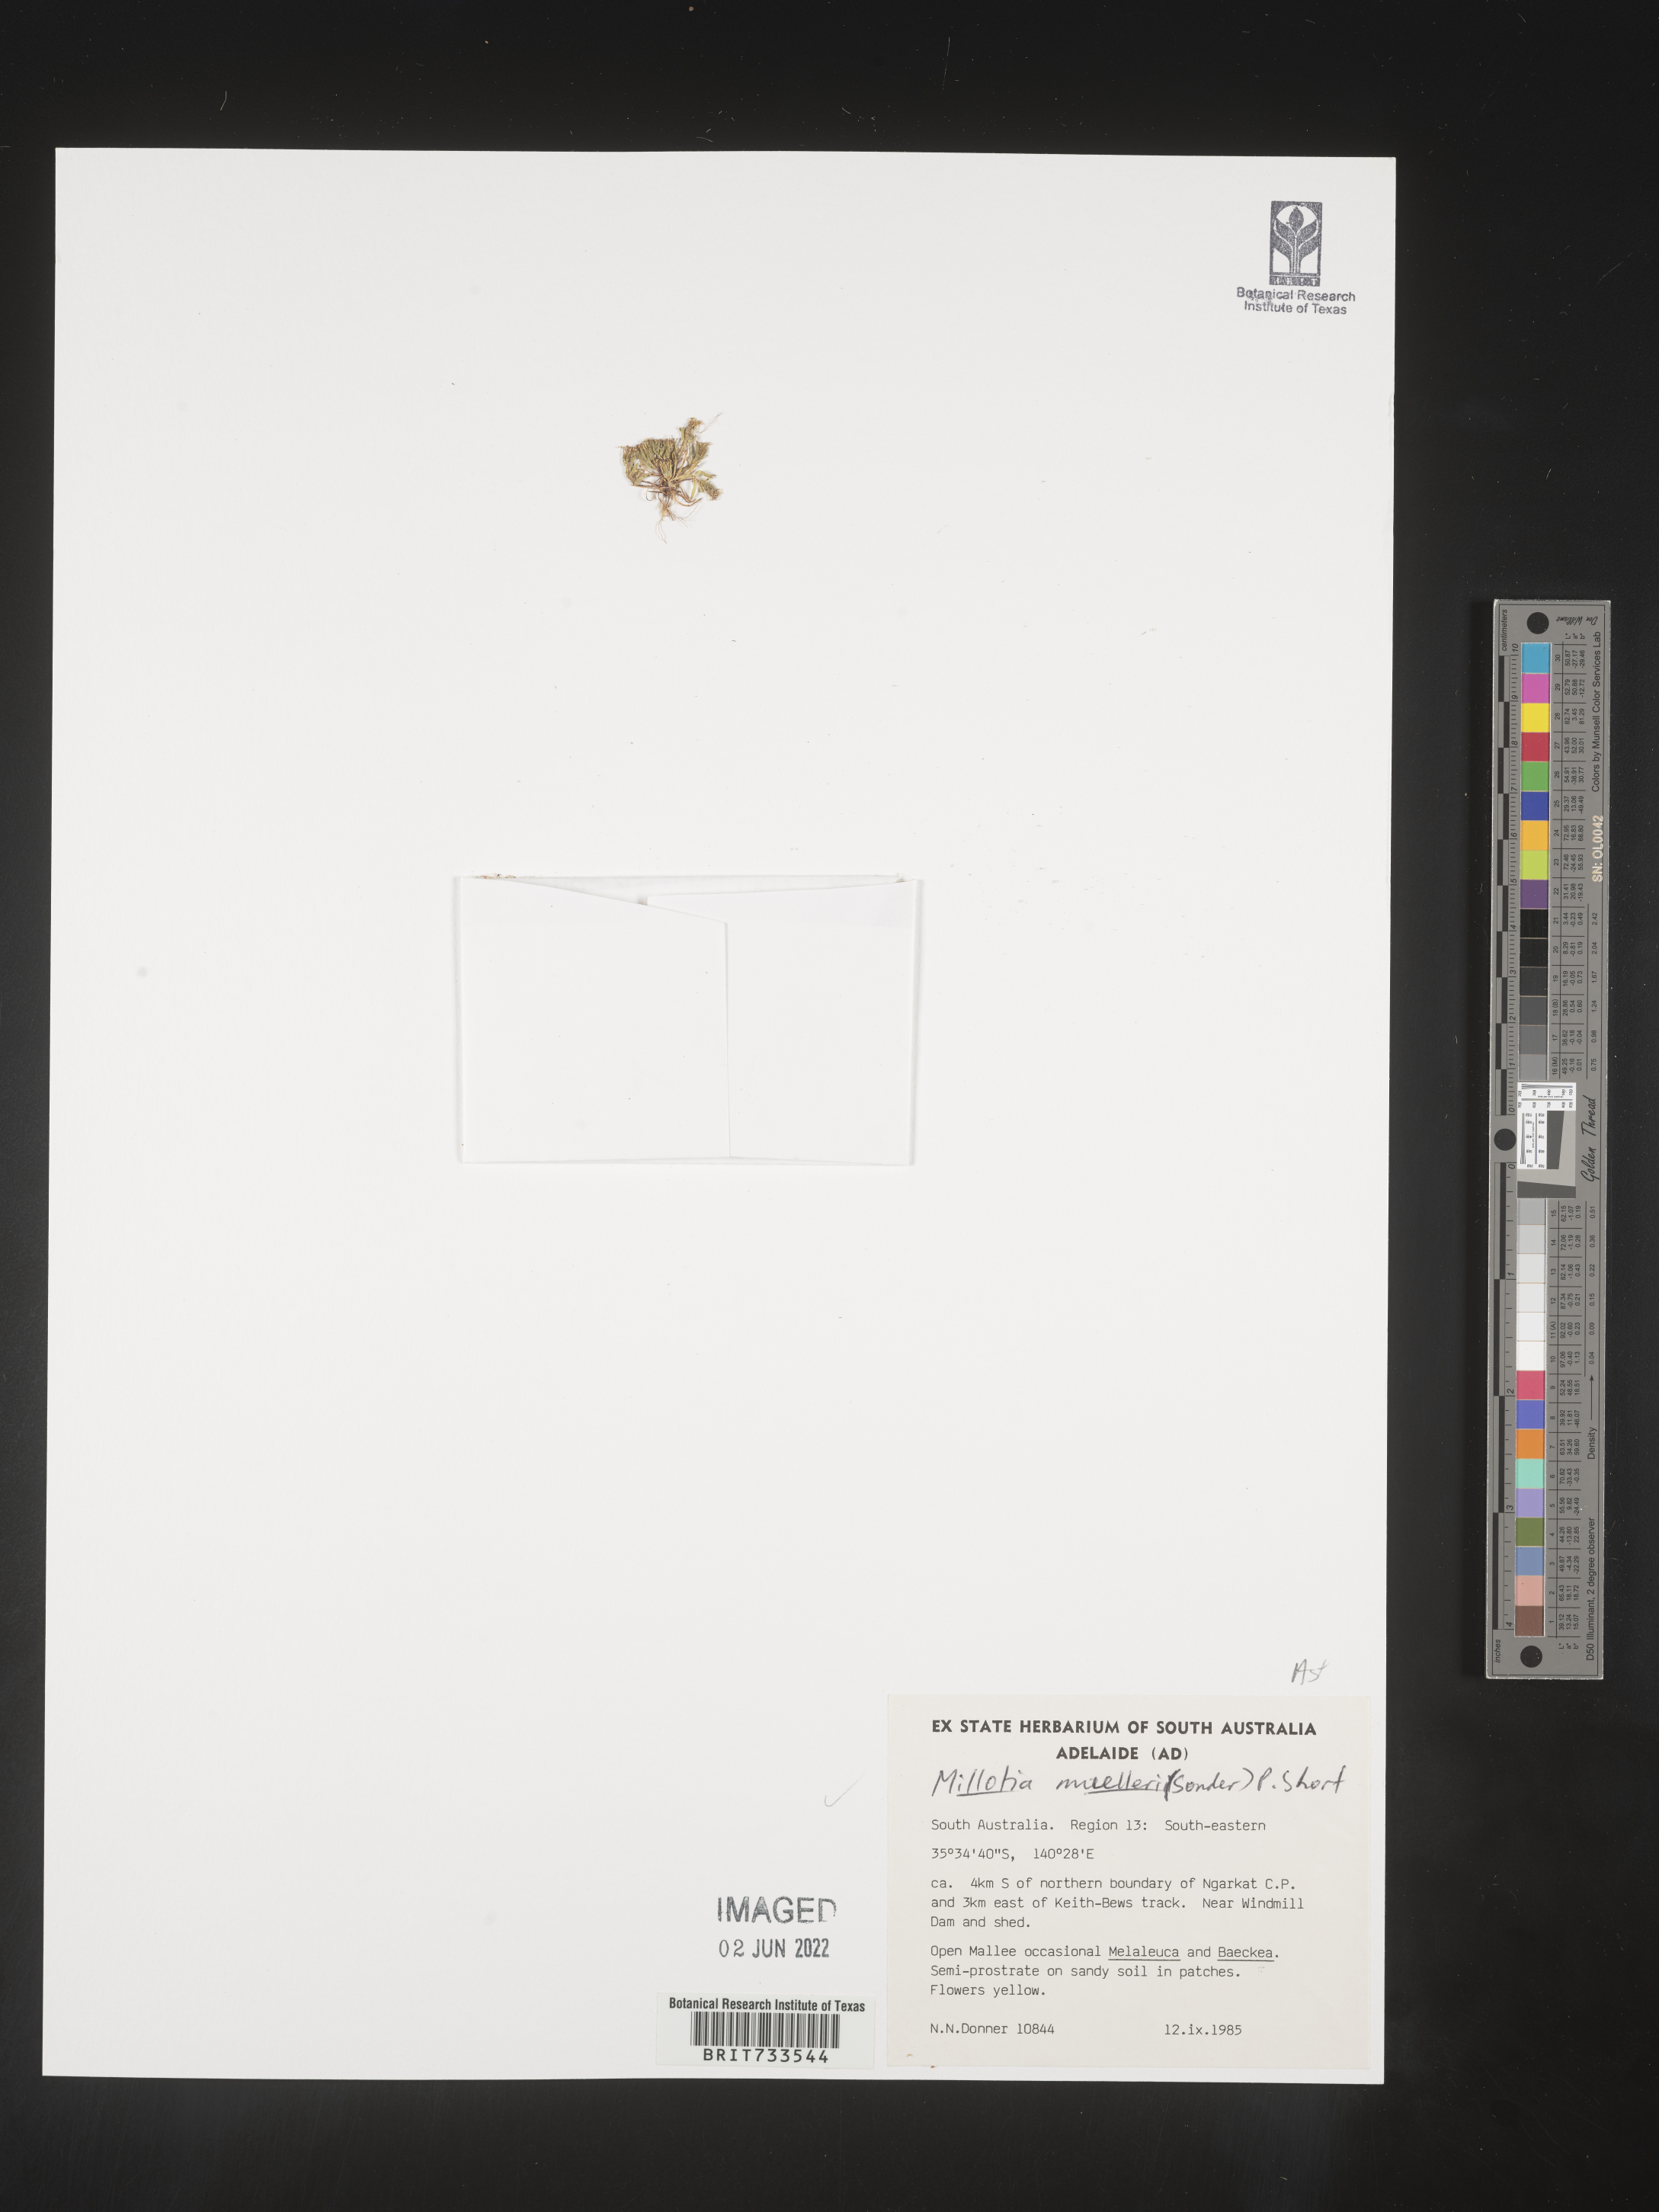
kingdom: Plantae
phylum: Tracheophyta
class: Magnoliopsida
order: Asterales
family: Asteraceae
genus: Millotia
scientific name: Millotia
